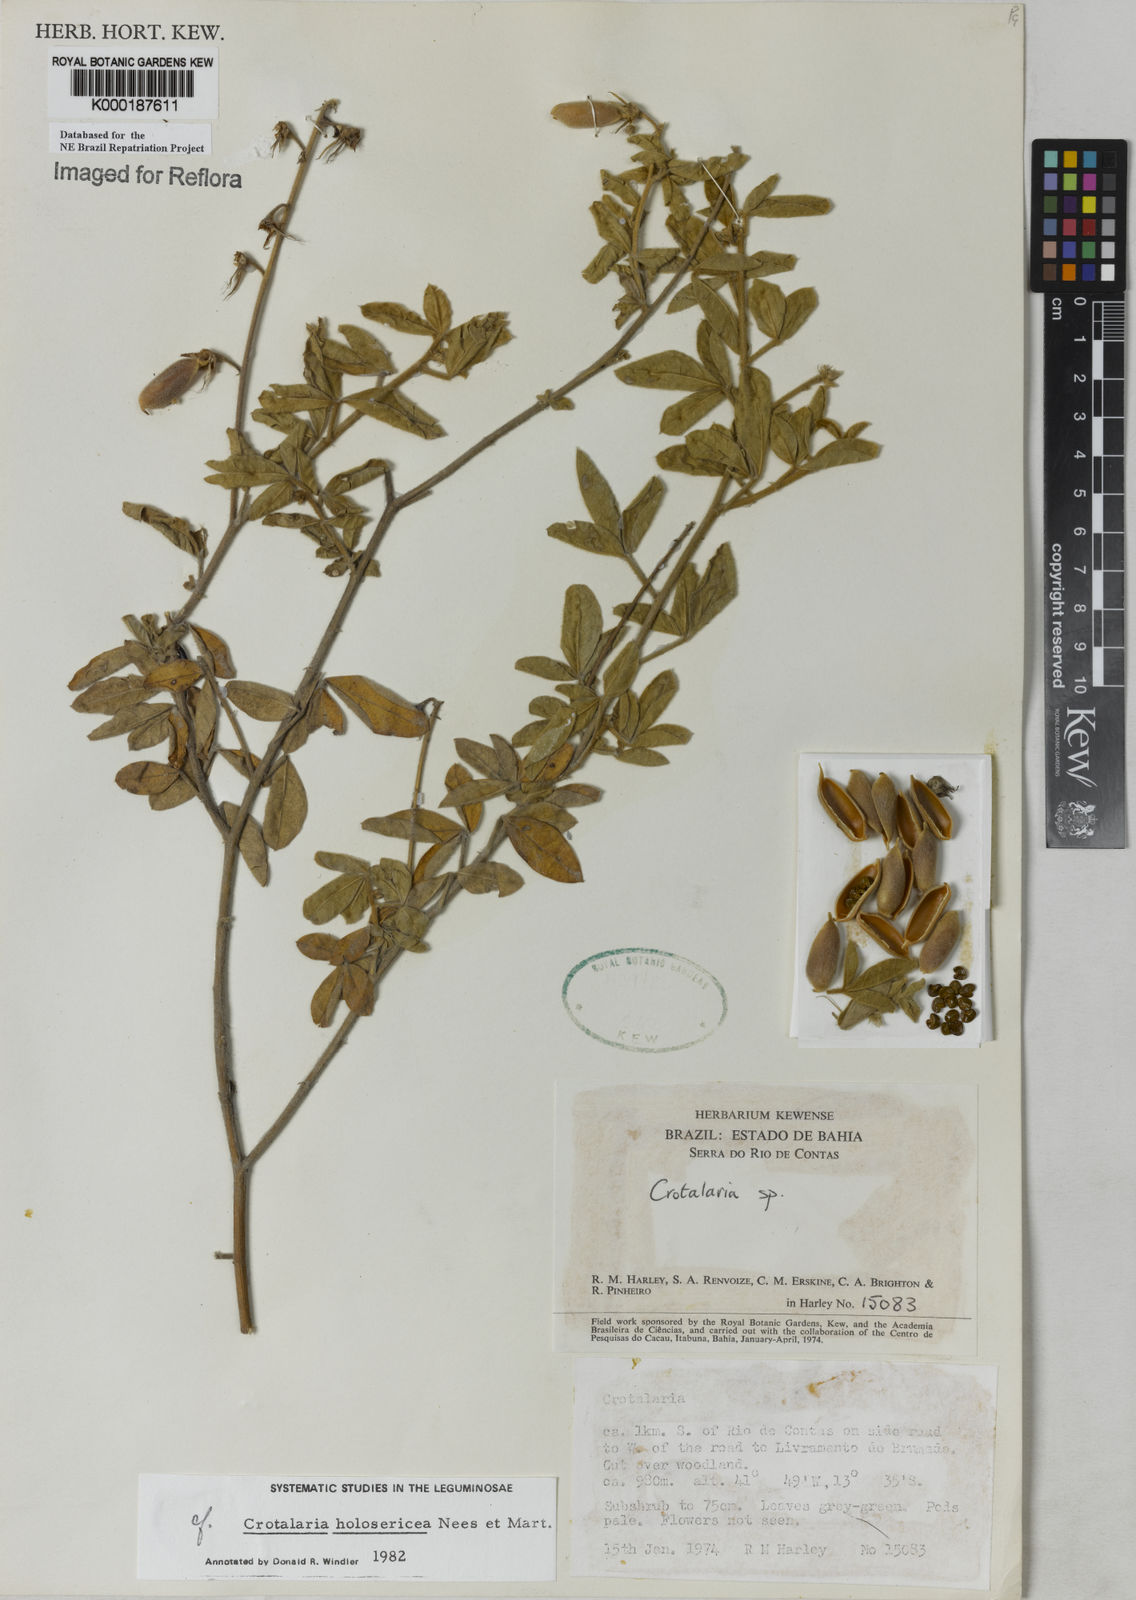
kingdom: Plantae
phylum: Tracheophyta
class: Magnoliopsida
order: Fabales
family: Fabaceae
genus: Crotalaria
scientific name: Crotalaria holosericea
